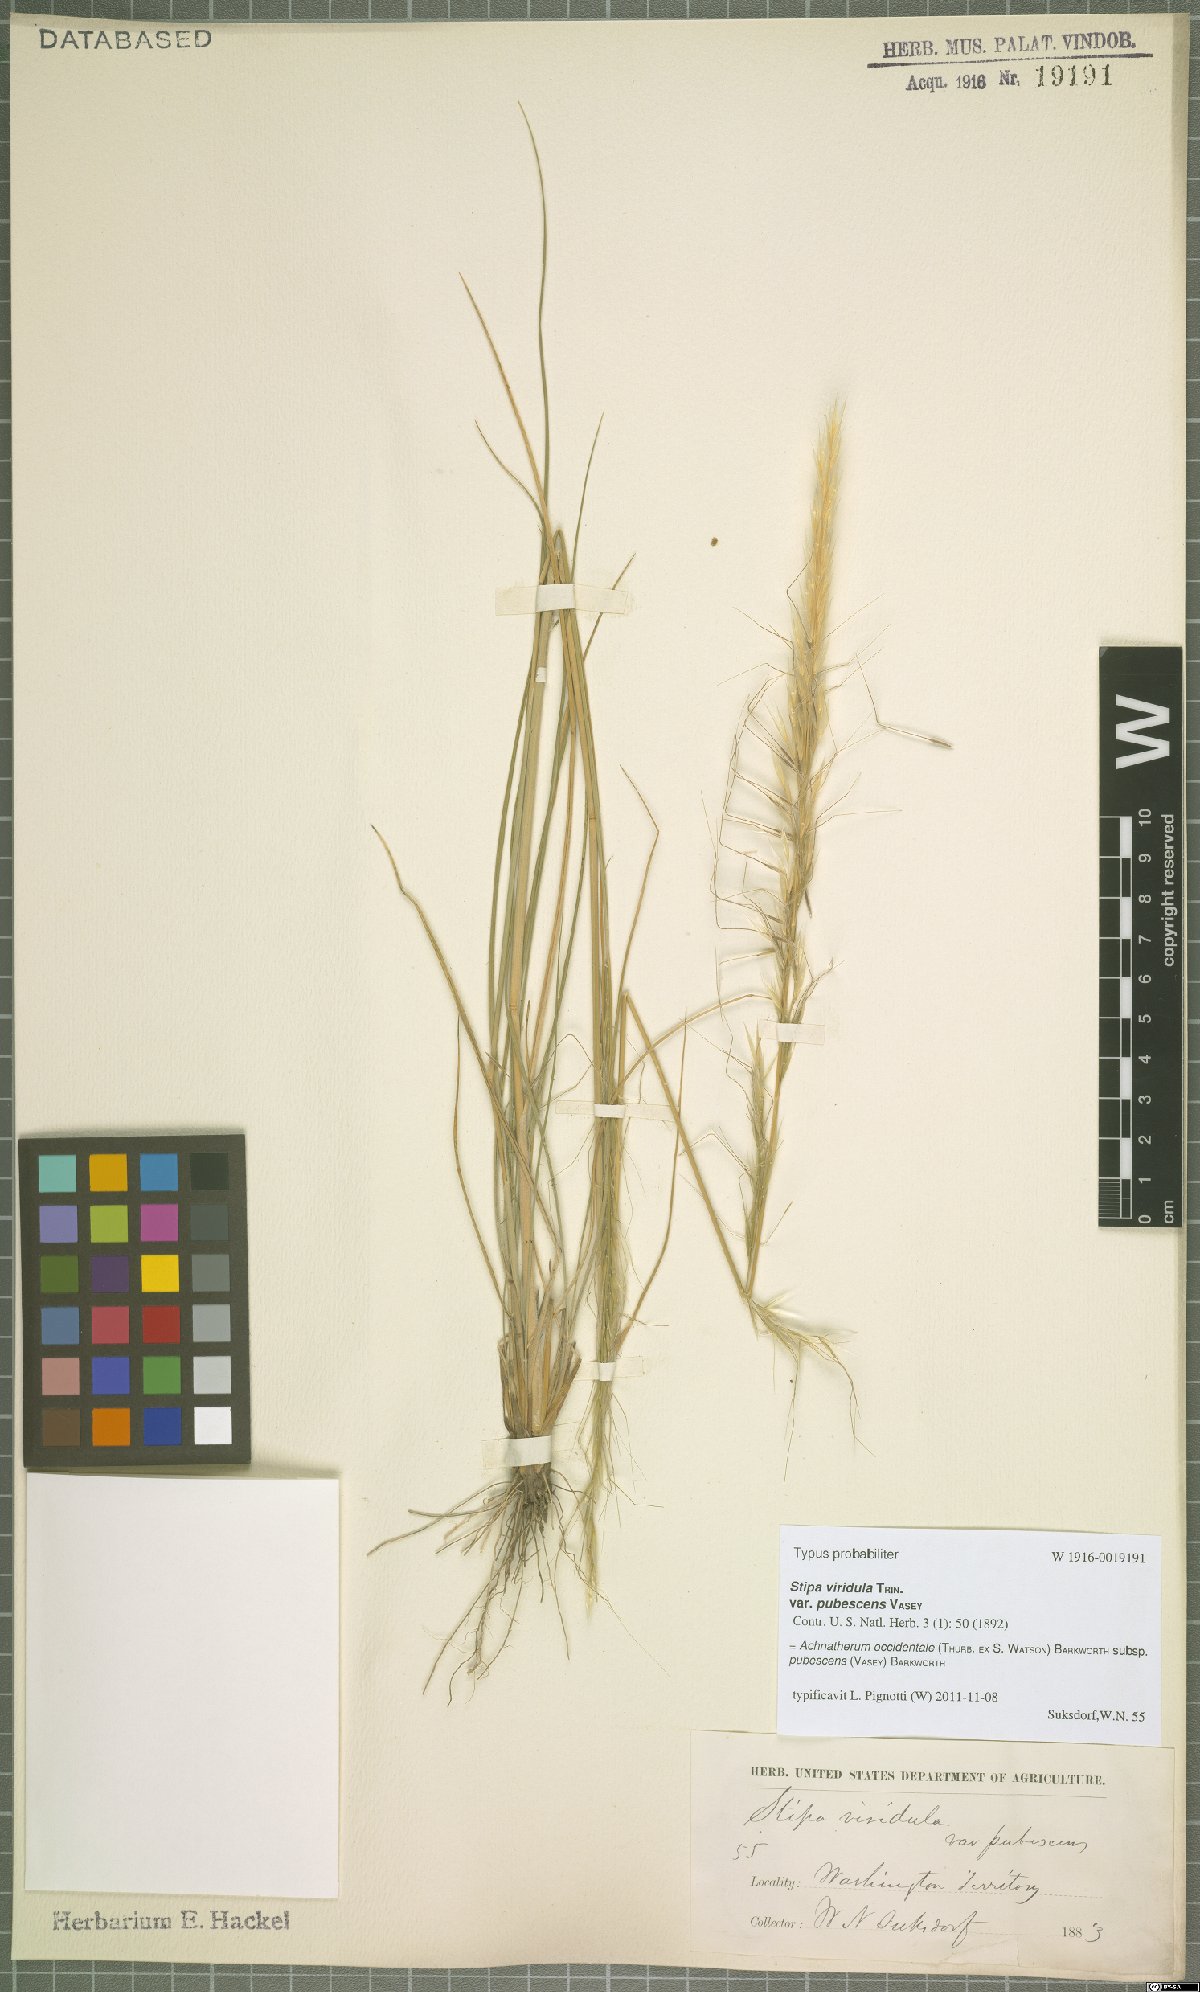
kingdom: Plantae
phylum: Tracheophyta
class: Liliopsida
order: Poales
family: Poaceae
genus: Eriocoma
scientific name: Eriocoma occidentalis
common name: Stiff needlegrass
